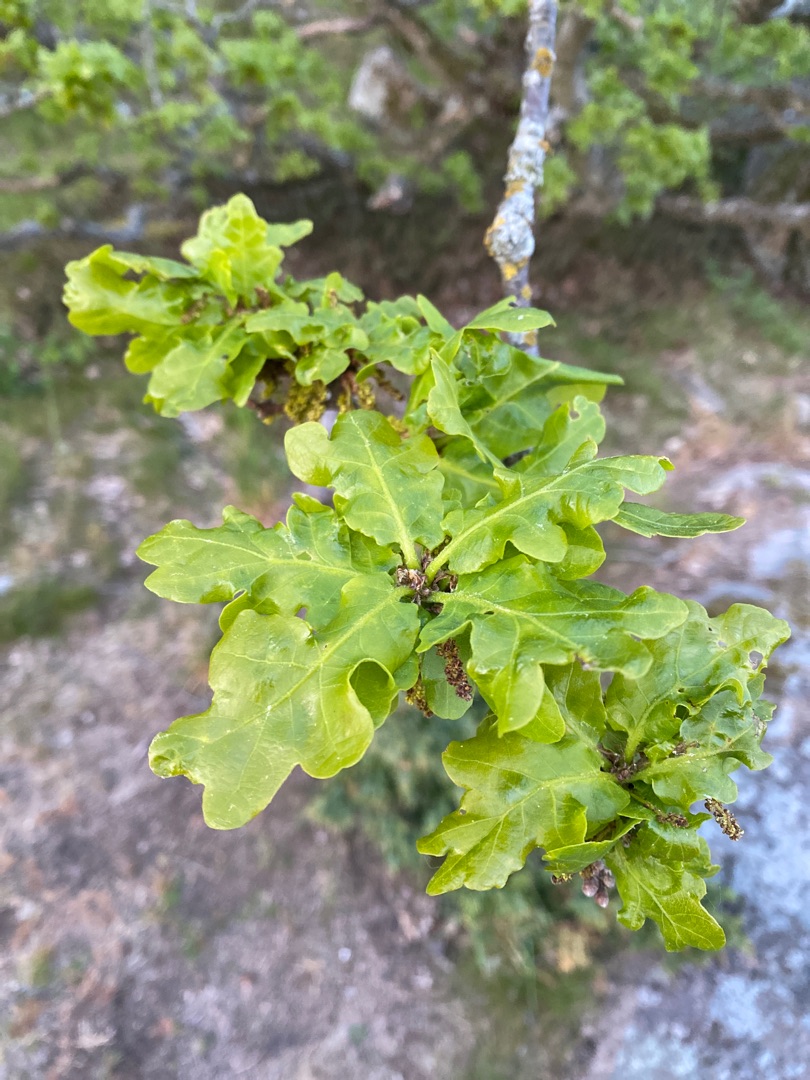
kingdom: Plantae
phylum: Tracheophyta
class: Magnoliopsida
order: Fagales
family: Fagaceae
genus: Quercus
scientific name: Quercus robur
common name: Stilk-eg/almindelig eg
